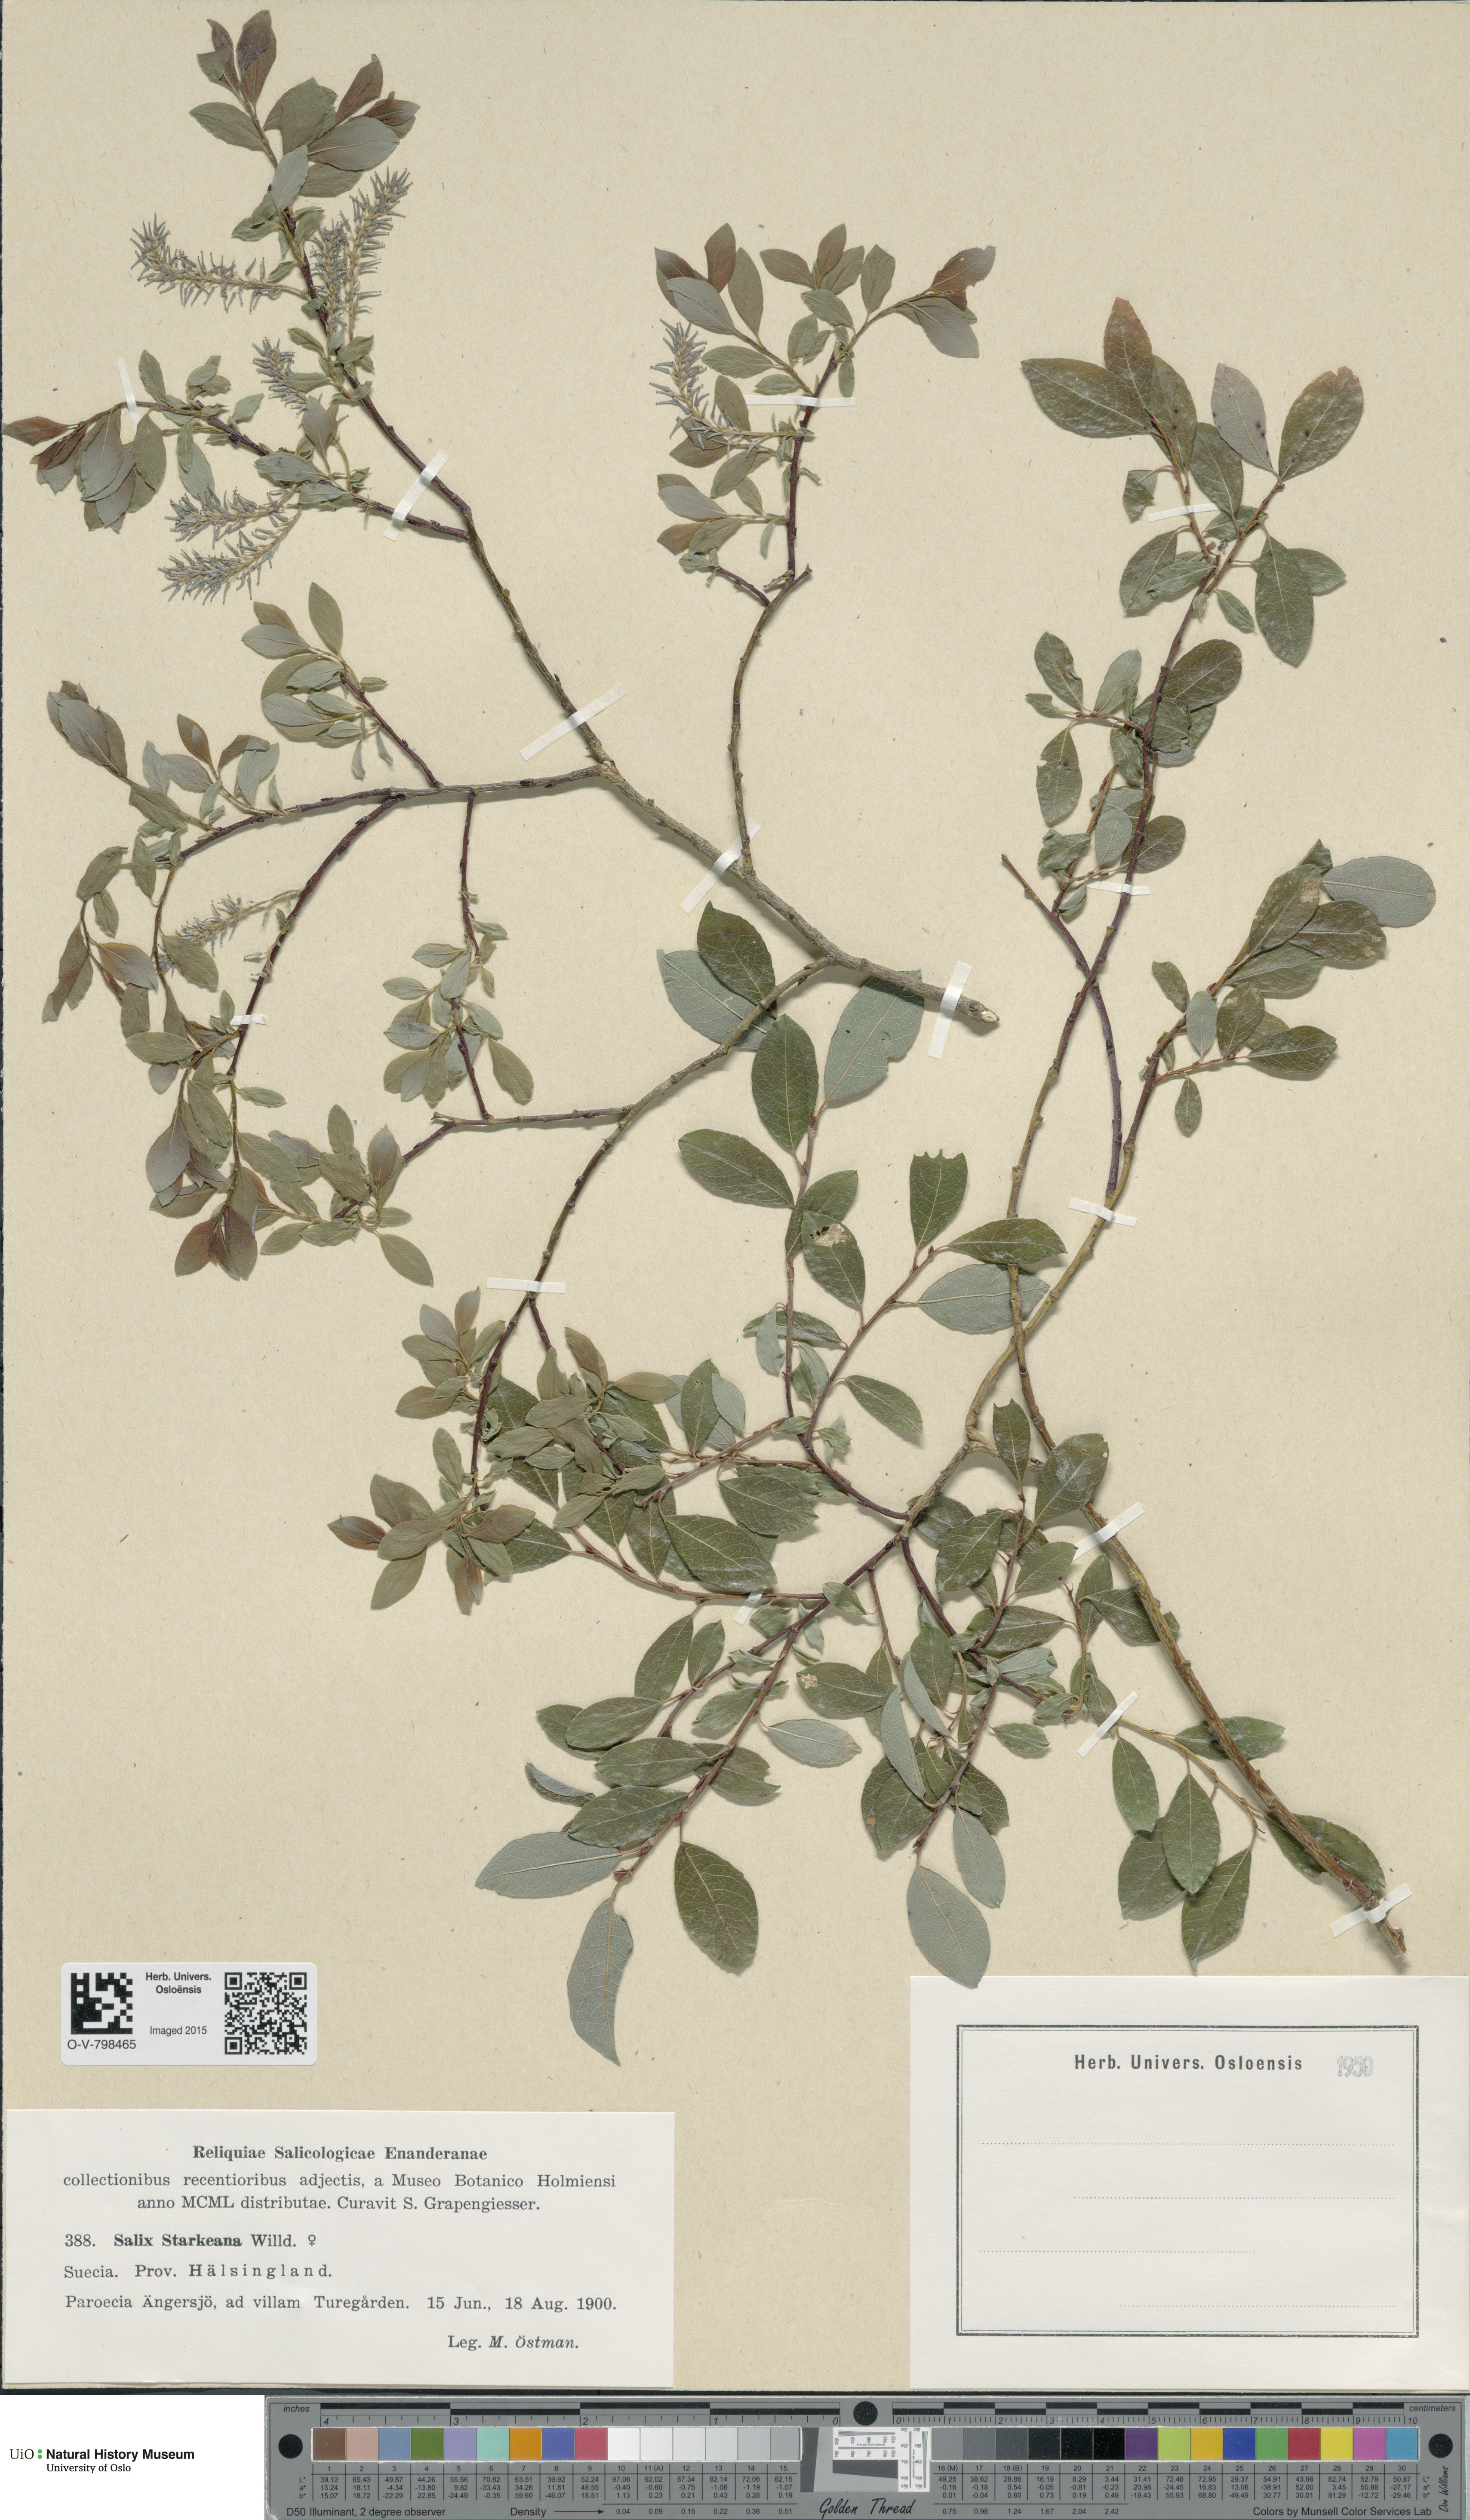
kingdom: Plantae
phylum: Tracheophyta
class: Magnoliopsida
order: Malpighiales
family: Salicaceae
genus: Salix
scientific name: Salix starkeana
